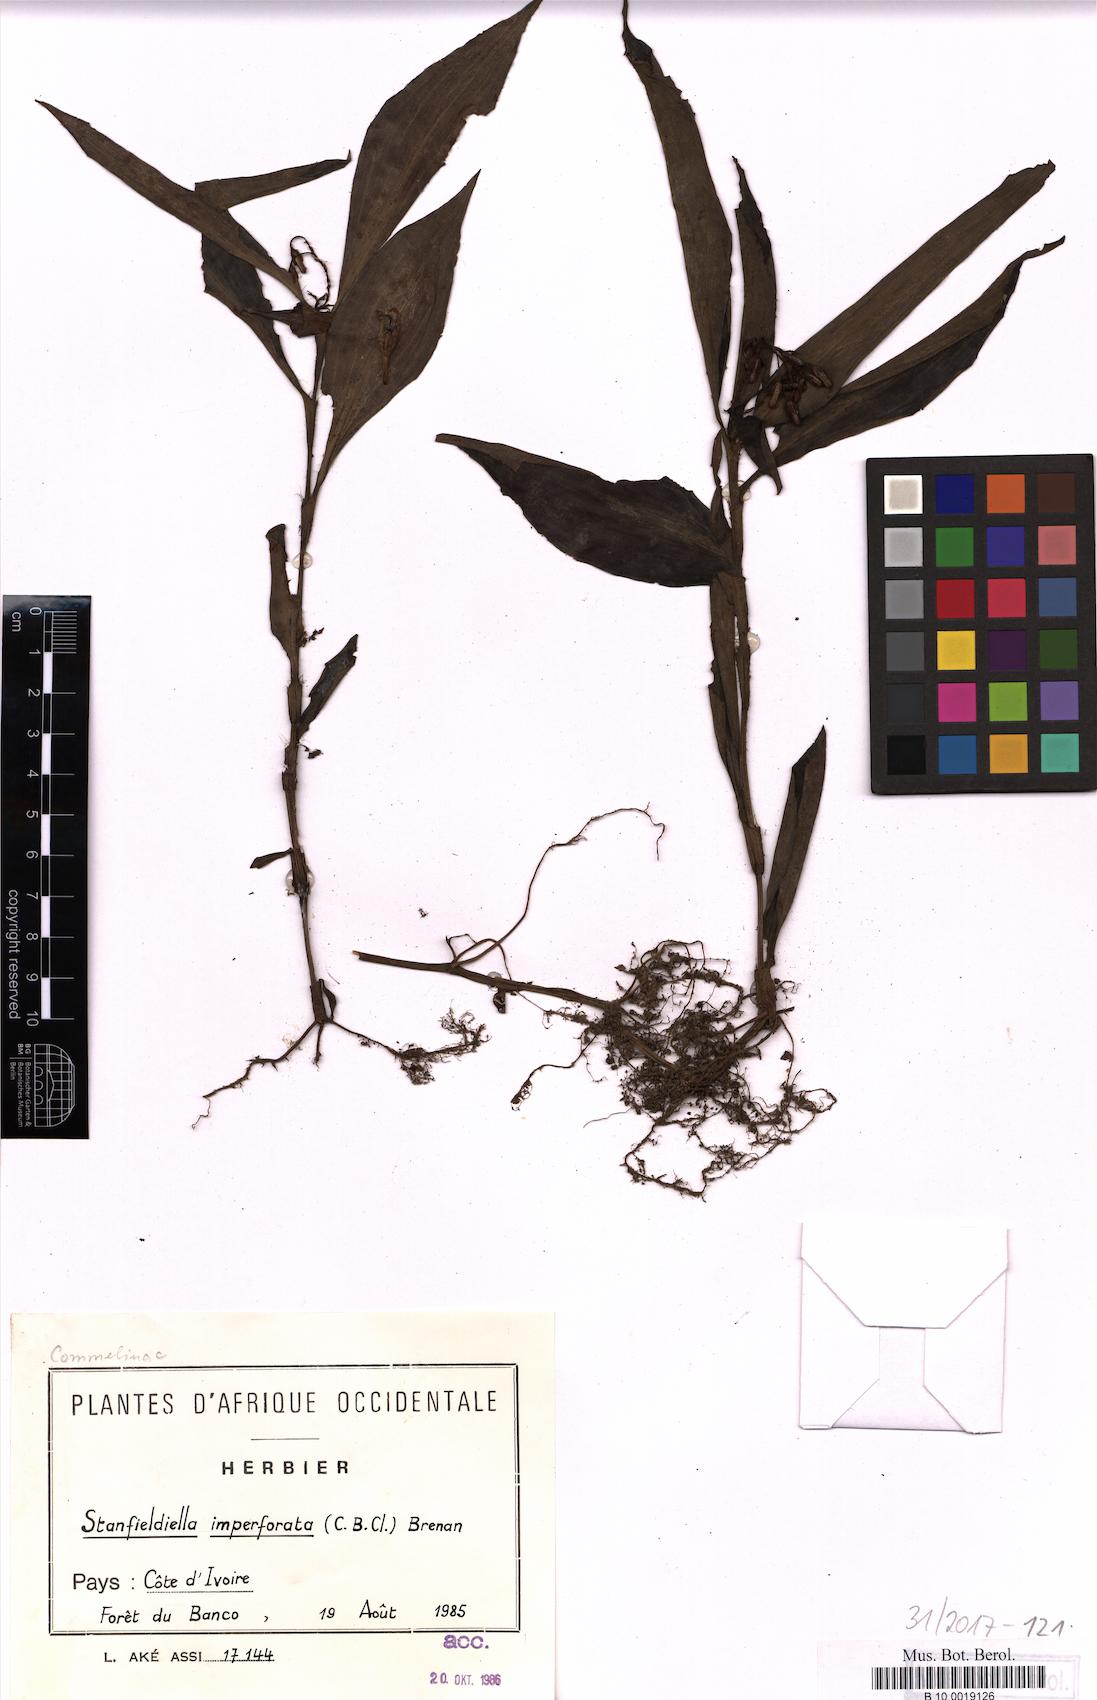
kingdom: Plantae
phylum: Tracheophyta
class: Liliopsida
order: Commelinales
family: Commelinaceae
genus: Stanfieldiella
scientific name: Stanfieldiella imperforata
